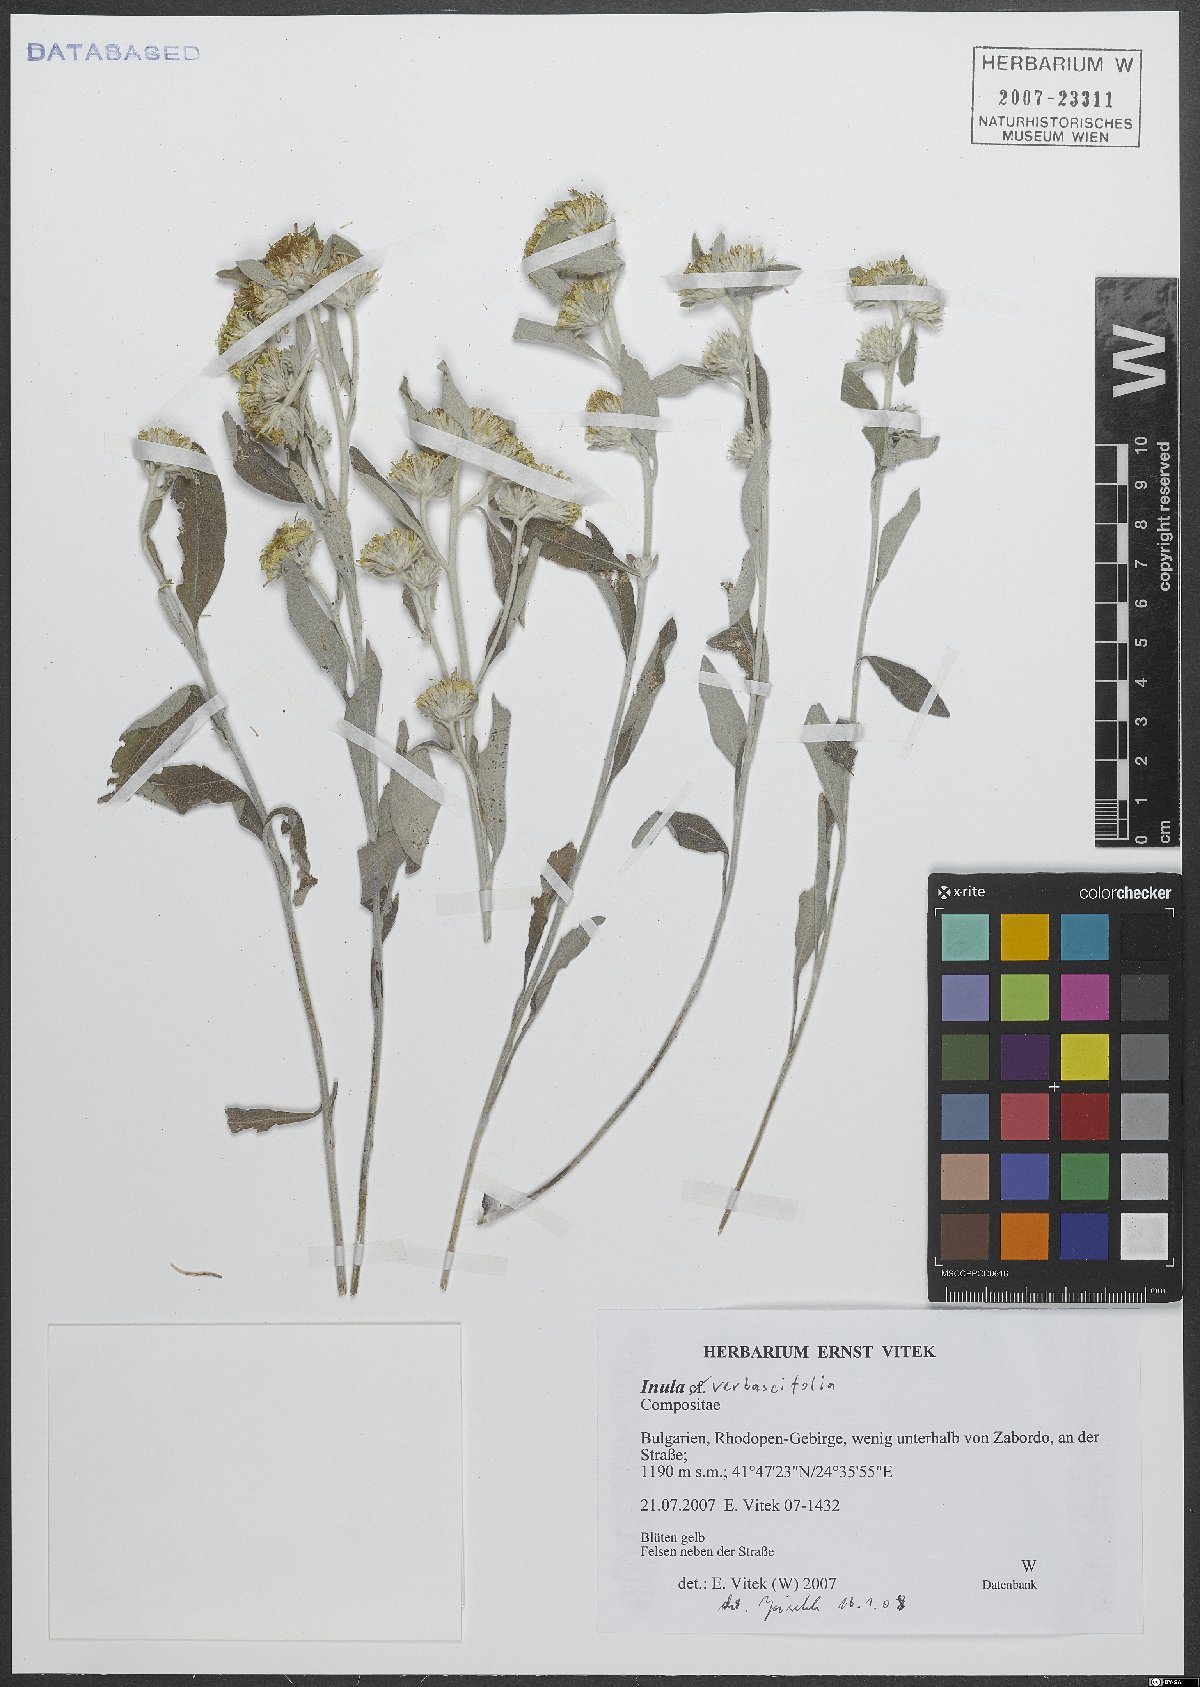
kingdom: Plantae
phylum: Tracheophyta
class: Magnoliopsida
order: Asterales
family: Asteraceae
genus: Pentanema
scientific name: Pentanema verbascifolium
